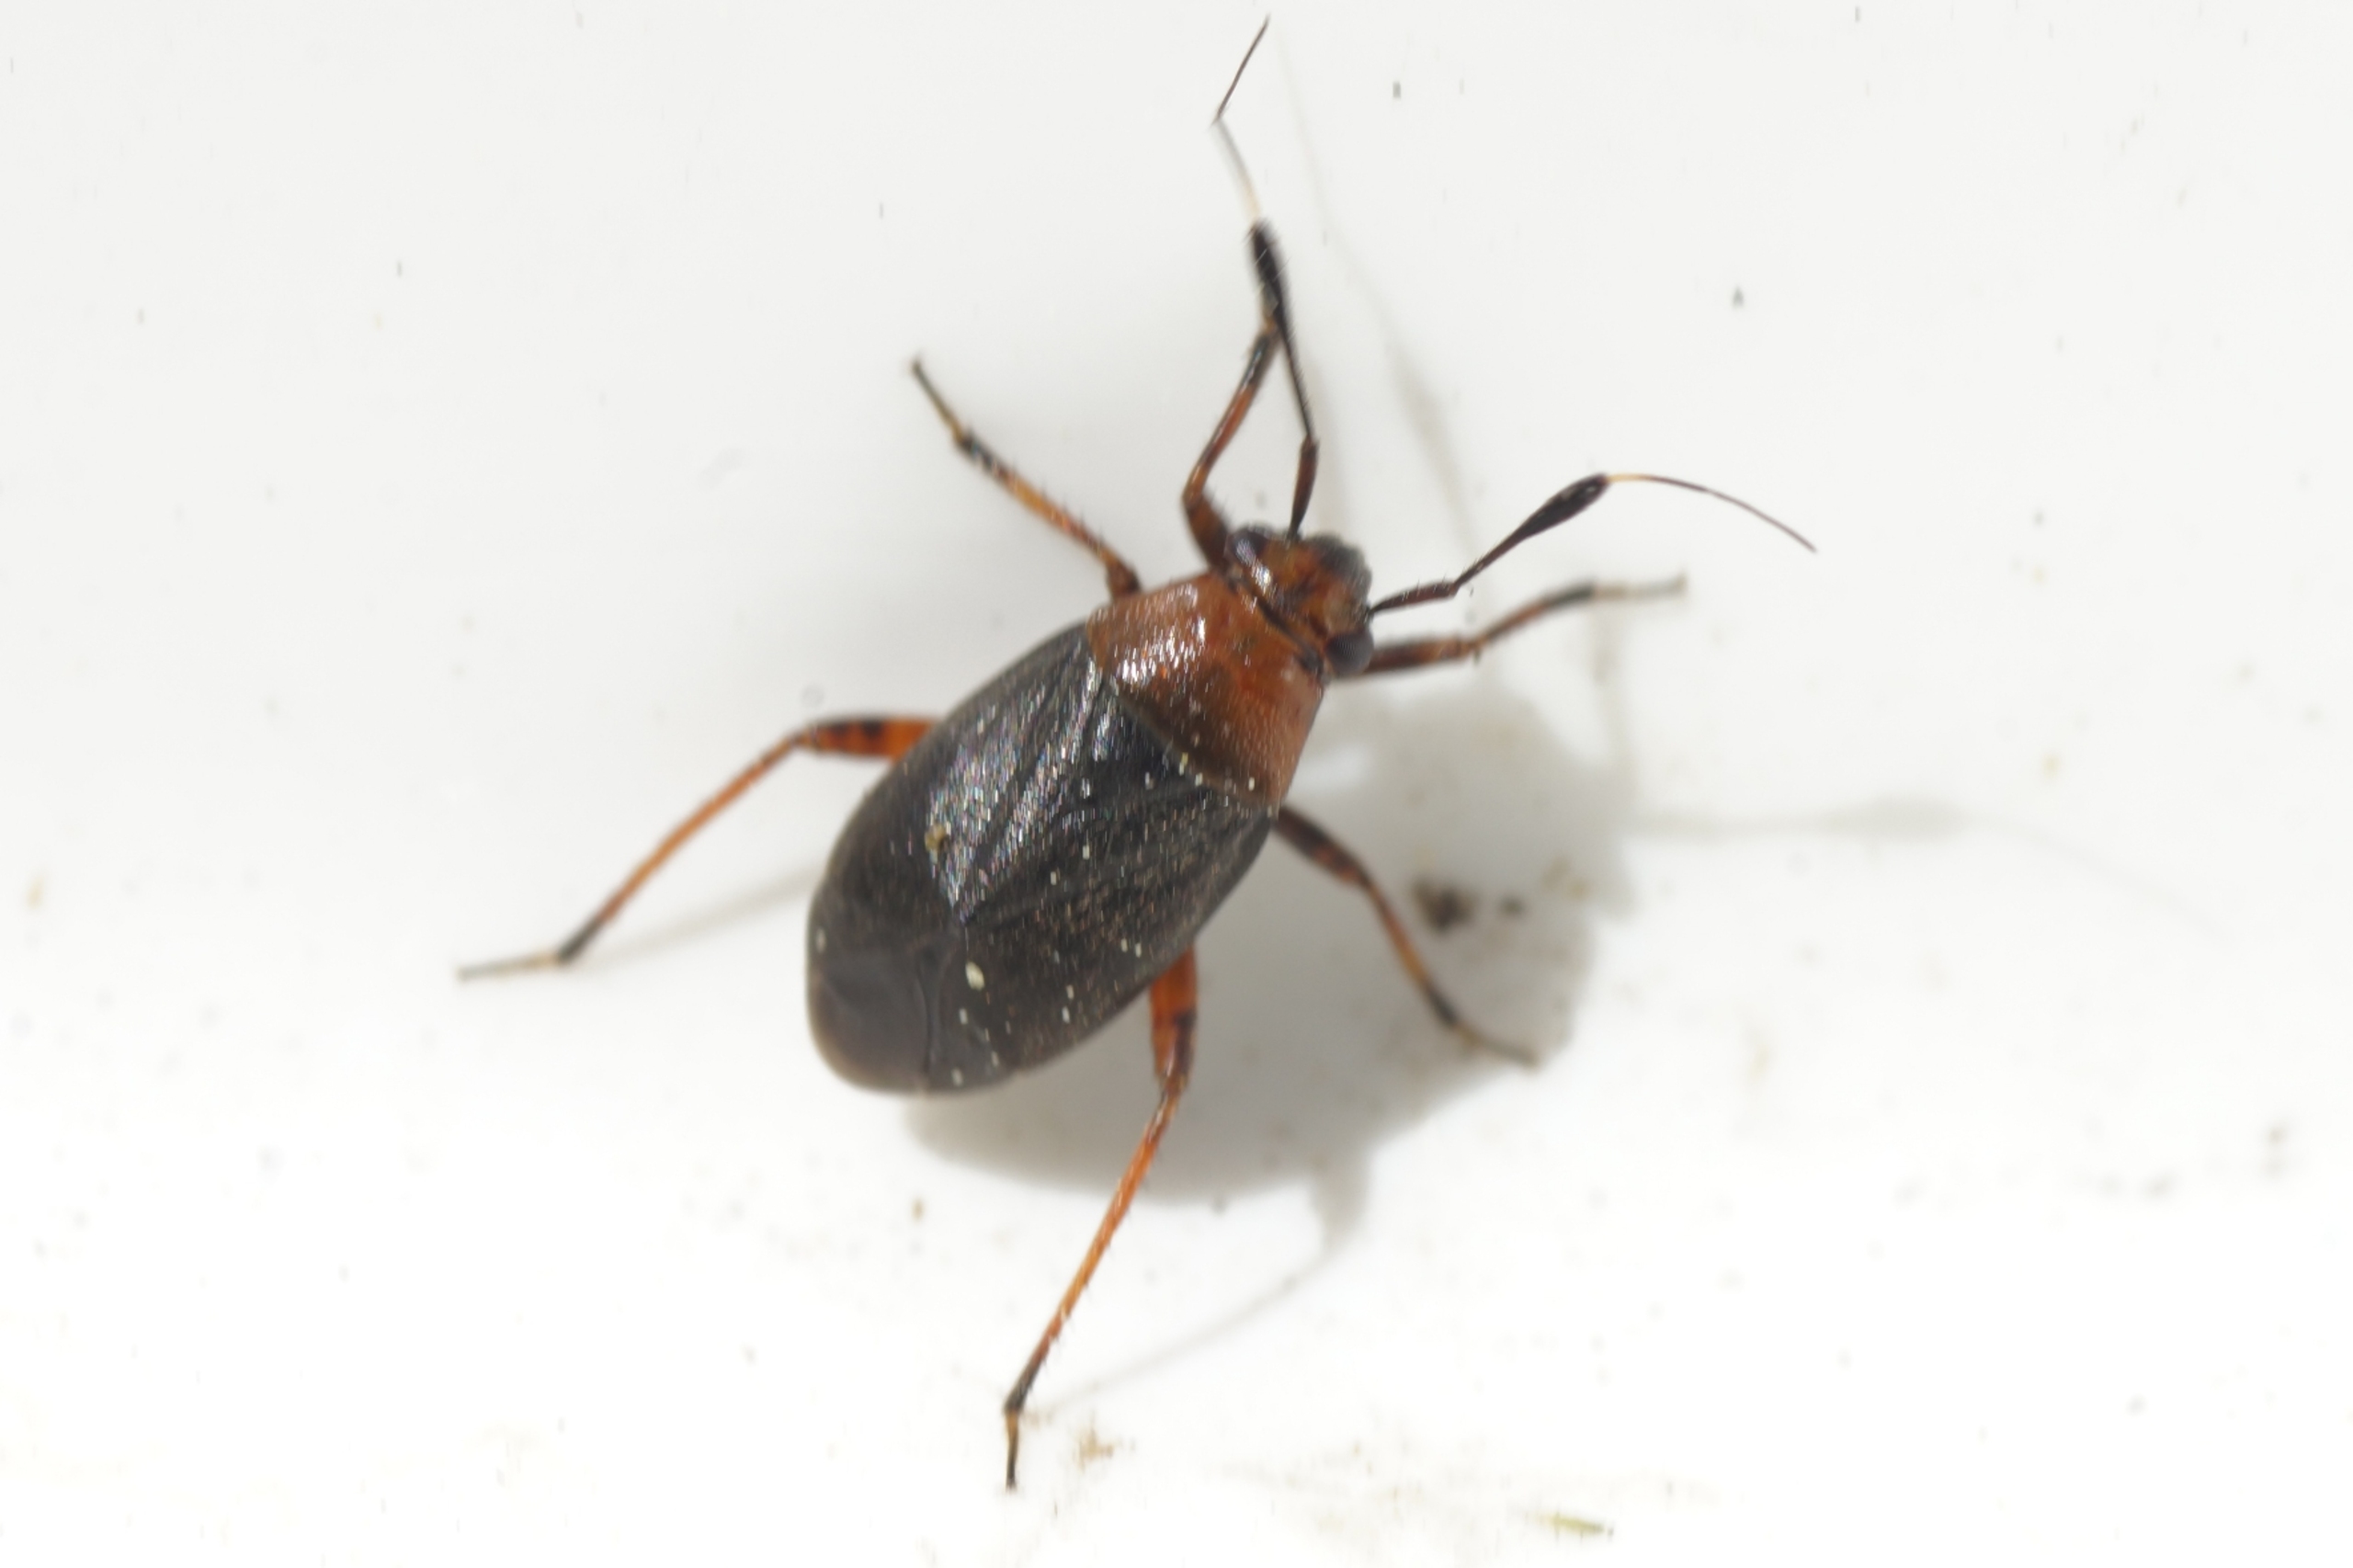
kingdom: Animalia
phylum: Arthropoda
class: Insecta
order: Hemiptera
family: Miridae
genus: Capsus
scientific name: Capsus ater
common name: Sort blomstertæge
